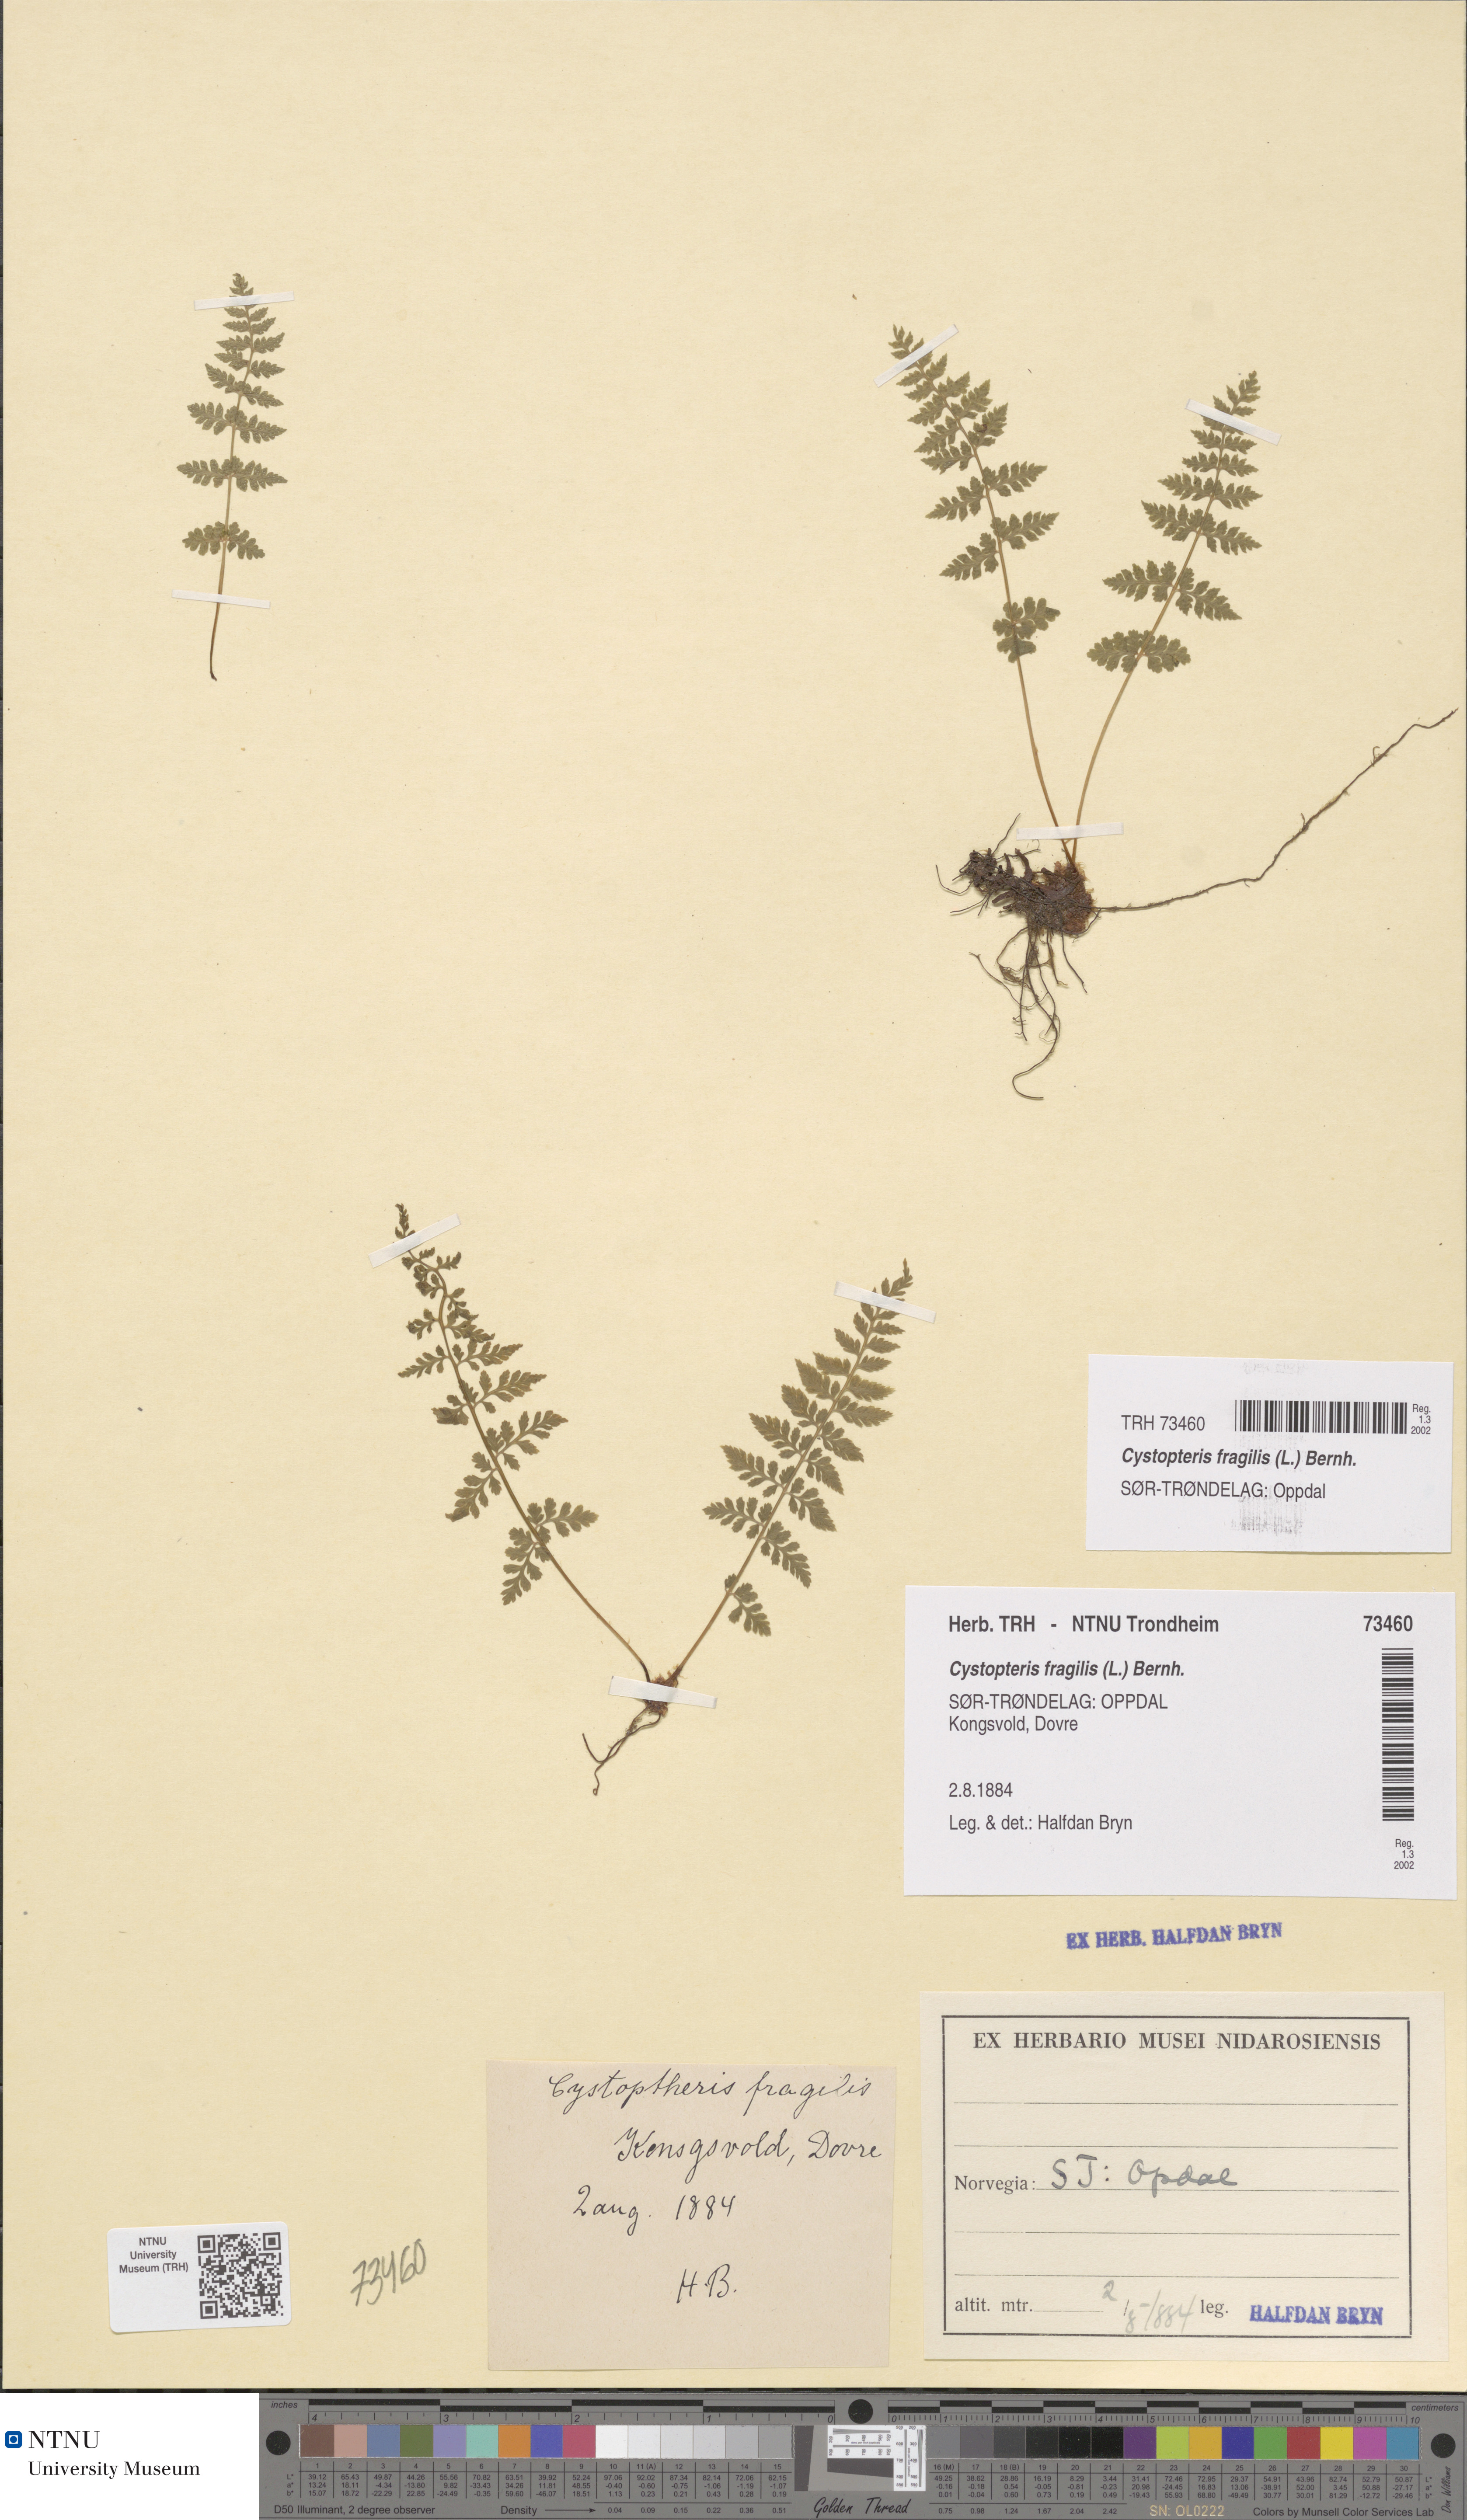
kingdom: Plantae
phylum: Tracheophyta
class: Polypodiopsida
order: Polypodiales
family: Cystopteridaceae
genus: Cystopteris
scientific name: Cystopteris fragilis
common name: Brittle bladder fern
